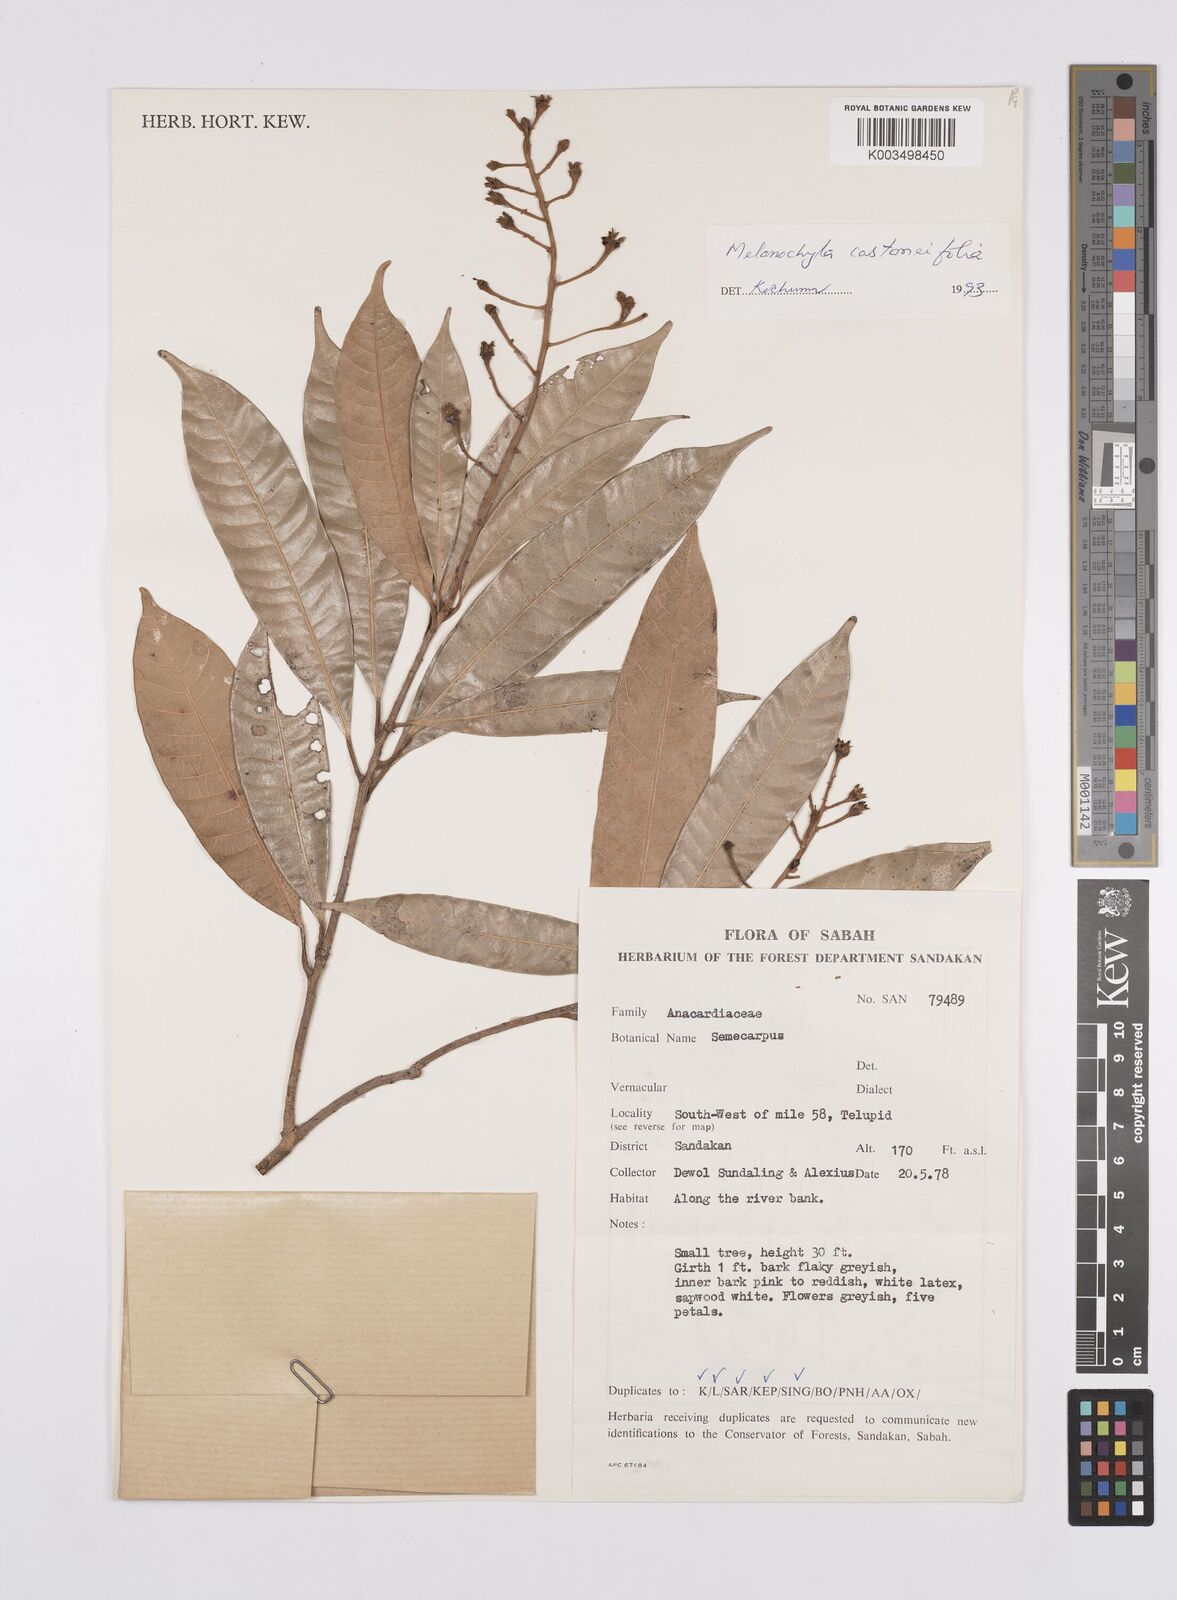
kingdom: Plantae
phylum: Tracheophyta
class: Magnoliopsida
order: Sapindales
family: Anacardiaceae
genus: Melanochyla
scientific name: Melanochyla castaneifolia
